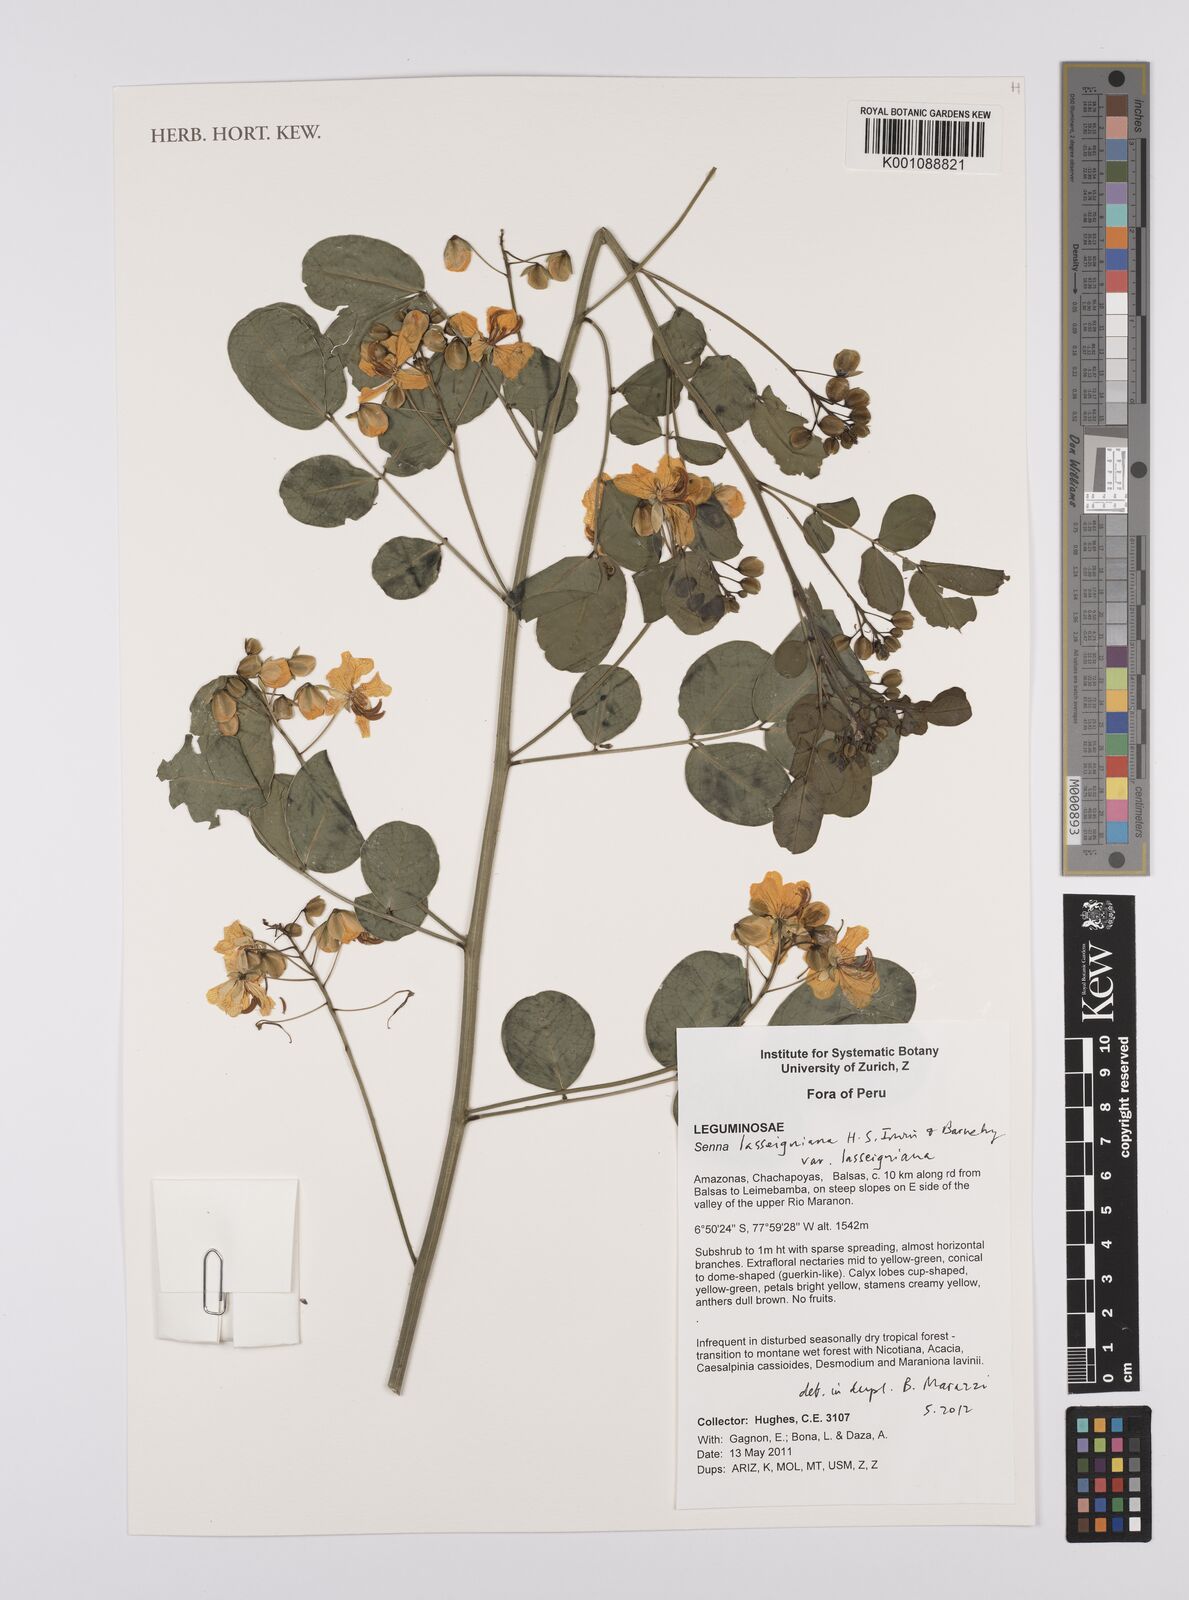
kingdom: Plantae
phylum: Tracheophyta
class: Magnoliopsida
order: Fabales
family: Fabaceae
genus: Senna
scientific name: Senna
